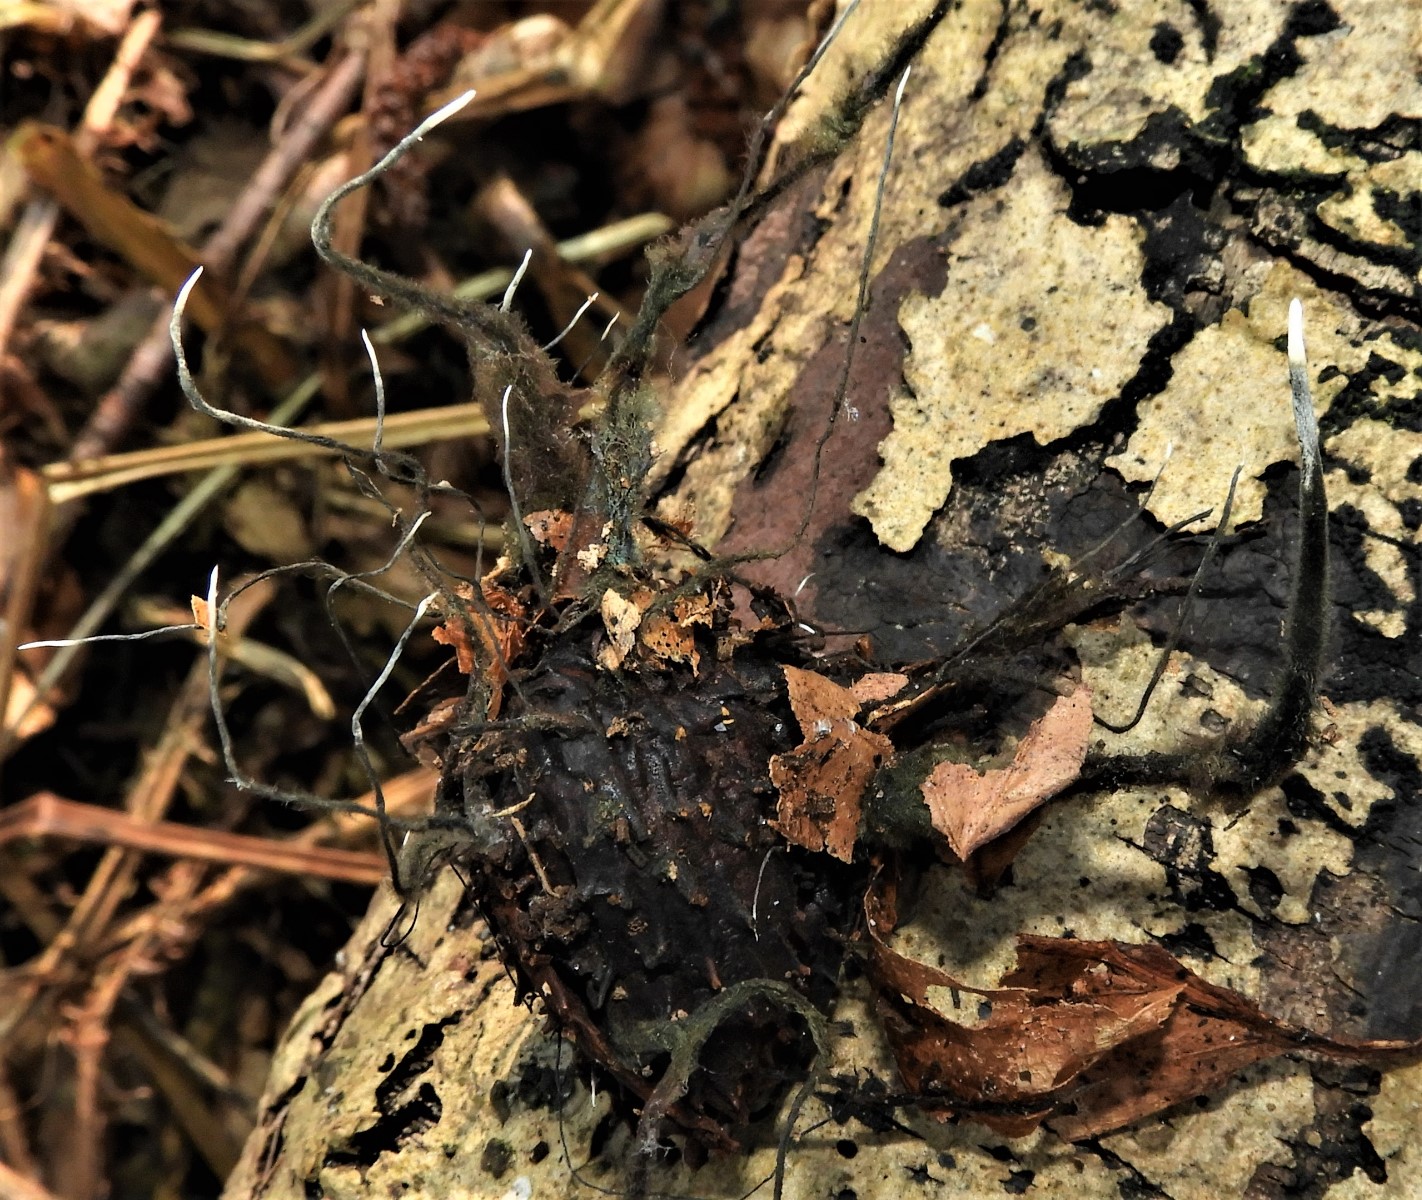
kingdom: Fungi
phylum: Ascomycota
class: Sordariomycetes
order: Xylariales
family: Xylariaceae
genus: Xylaria
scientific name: Xylaria carpophila
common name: bogskål-stødsvamp
